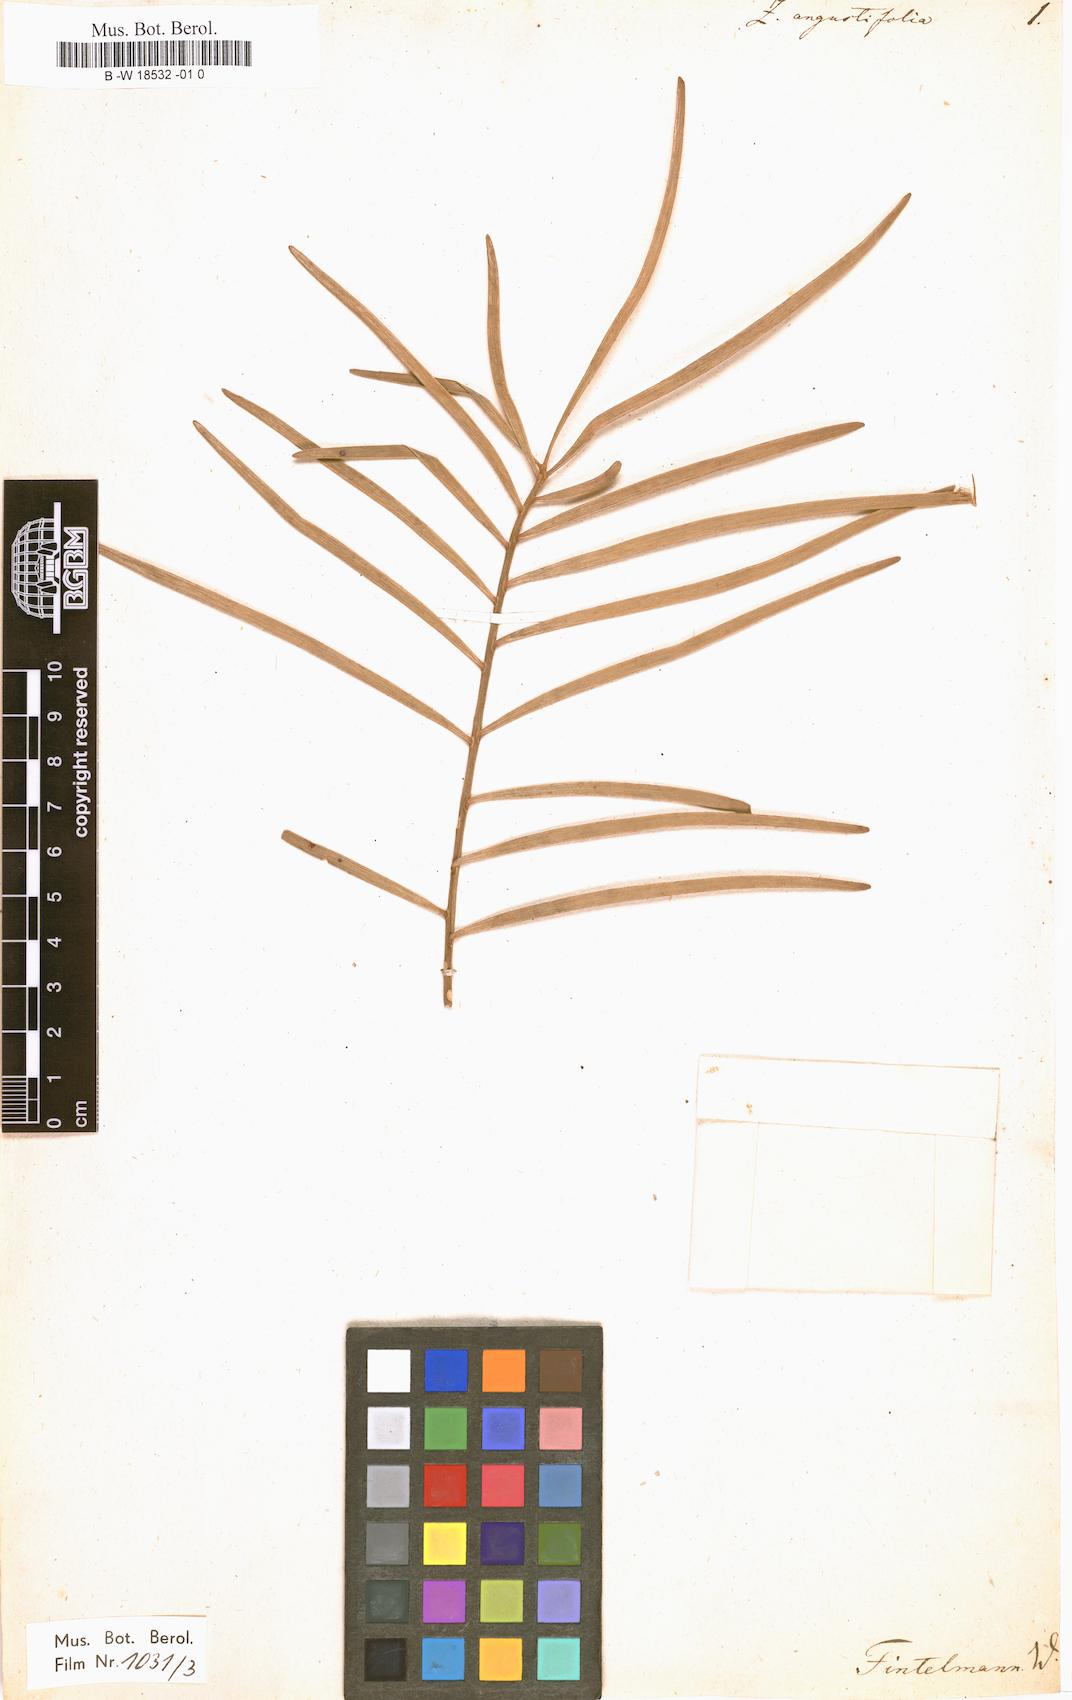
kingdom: Plantae
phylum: Tracheophyta
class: Cycadopsida
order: Cycadales
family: Zamiaceae
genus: Zamia
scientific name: Zamia angustifolia
